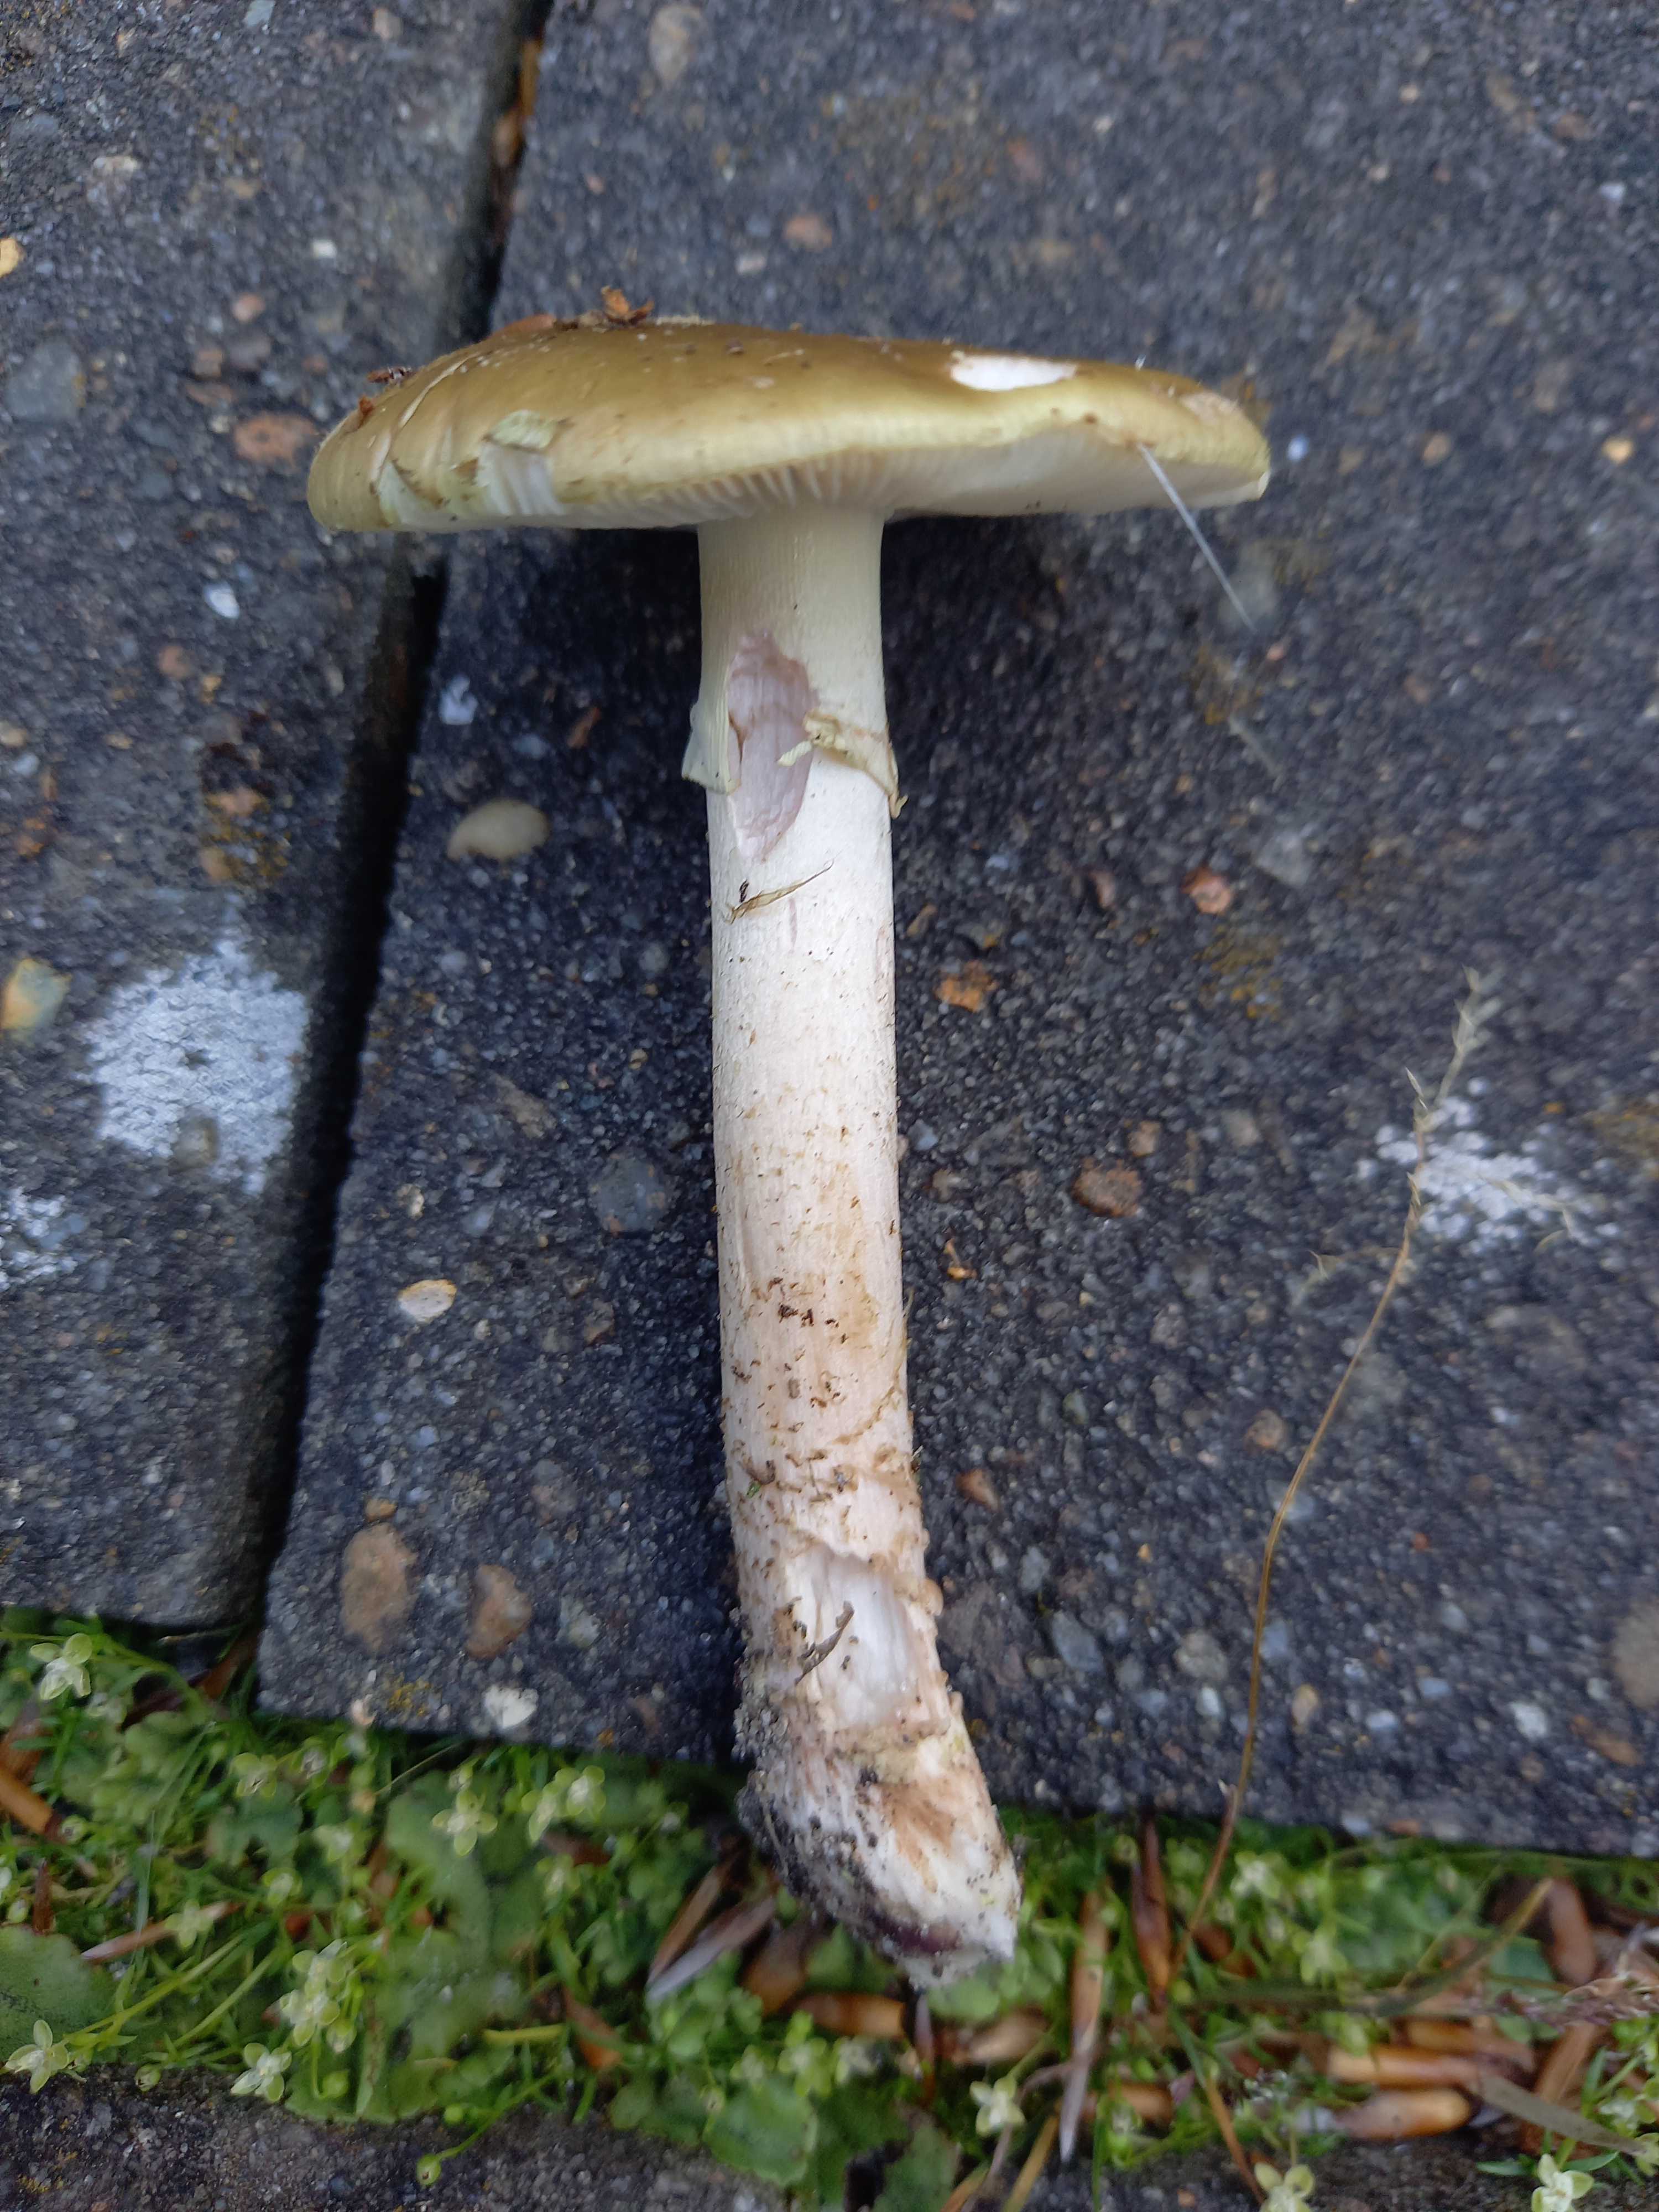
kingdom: Fungi
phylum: Basidiomycota
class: Agaricomycetes
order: Agaricales
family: Amanitaceae
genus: Amanita
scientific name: Amanita rubescens
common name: Blusher
